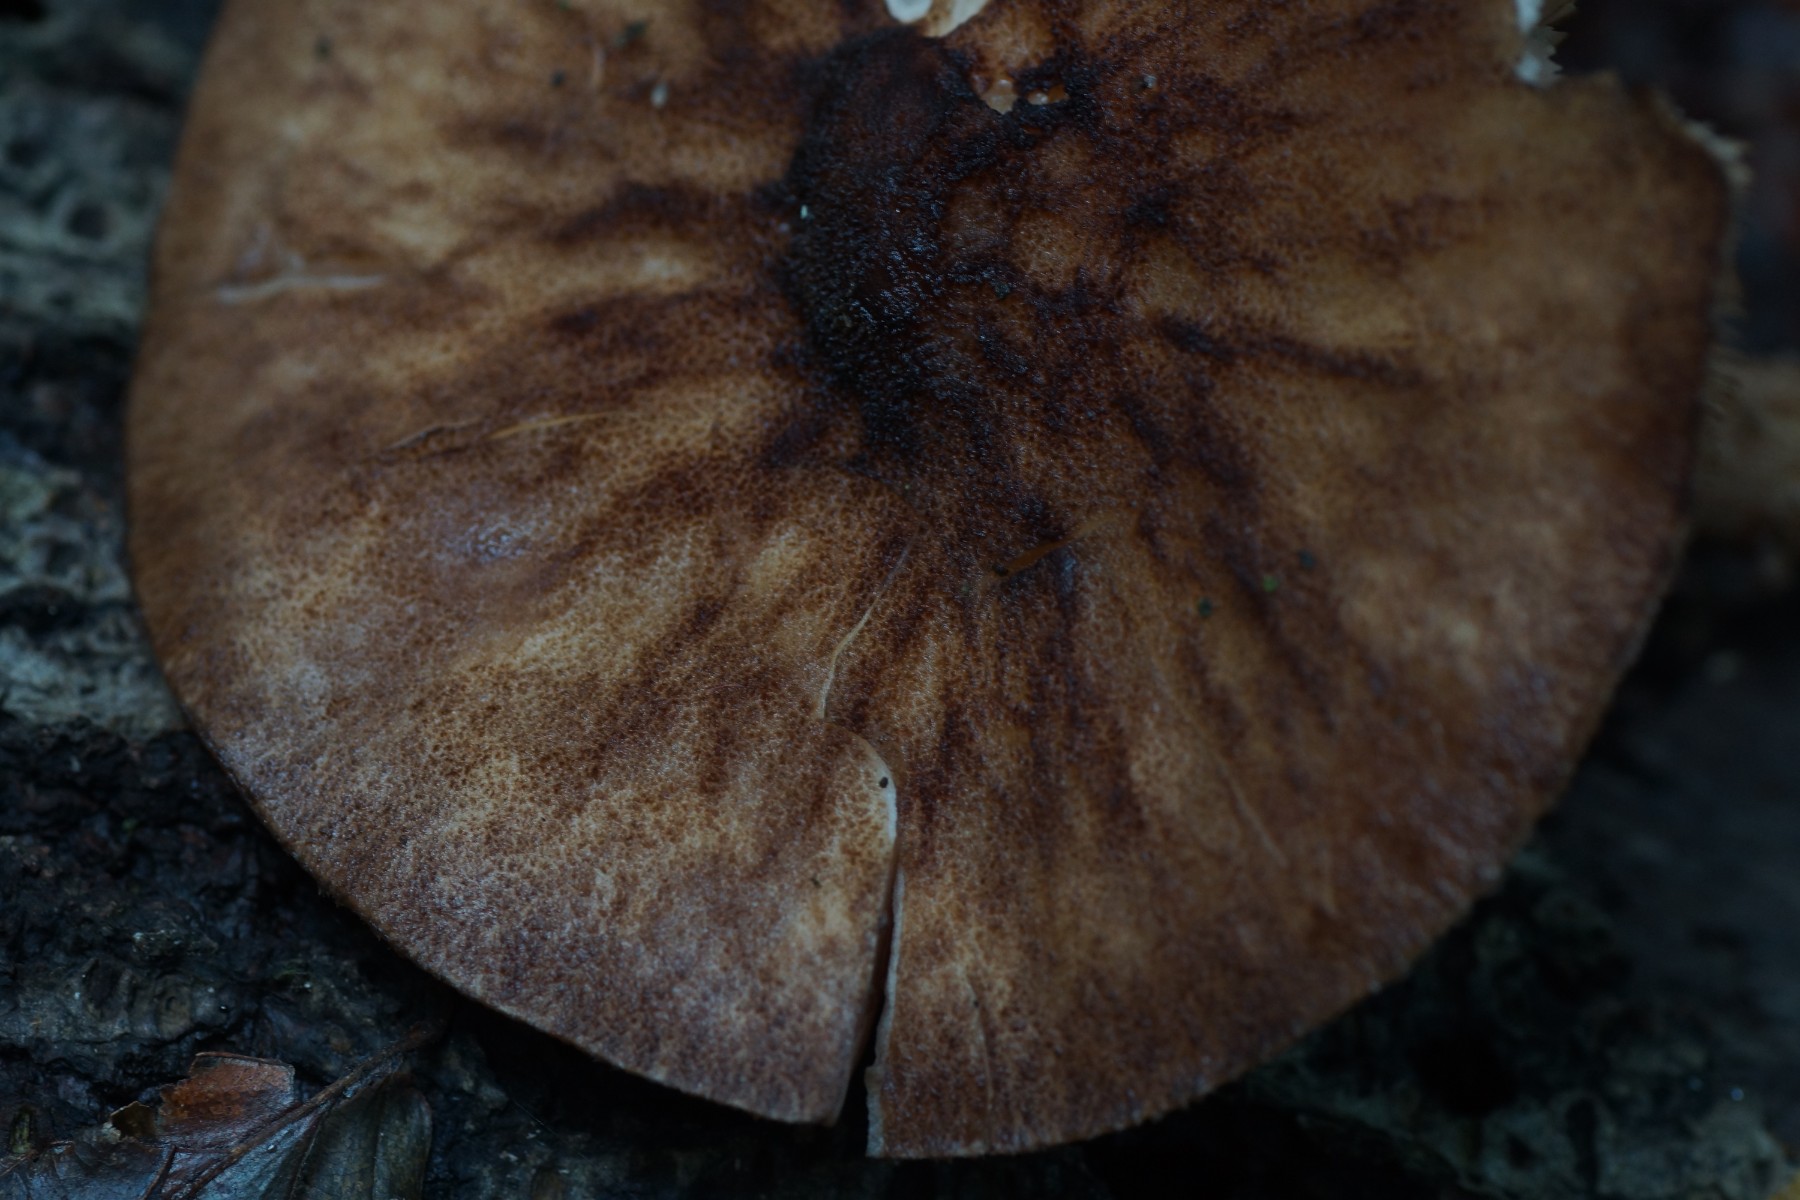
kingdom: Fungi
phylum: Basidiomycota
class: Agaricomycetes
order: Agaricales
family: Pluteaceae
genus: Pluteus
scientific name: Pluteus umbrosus
